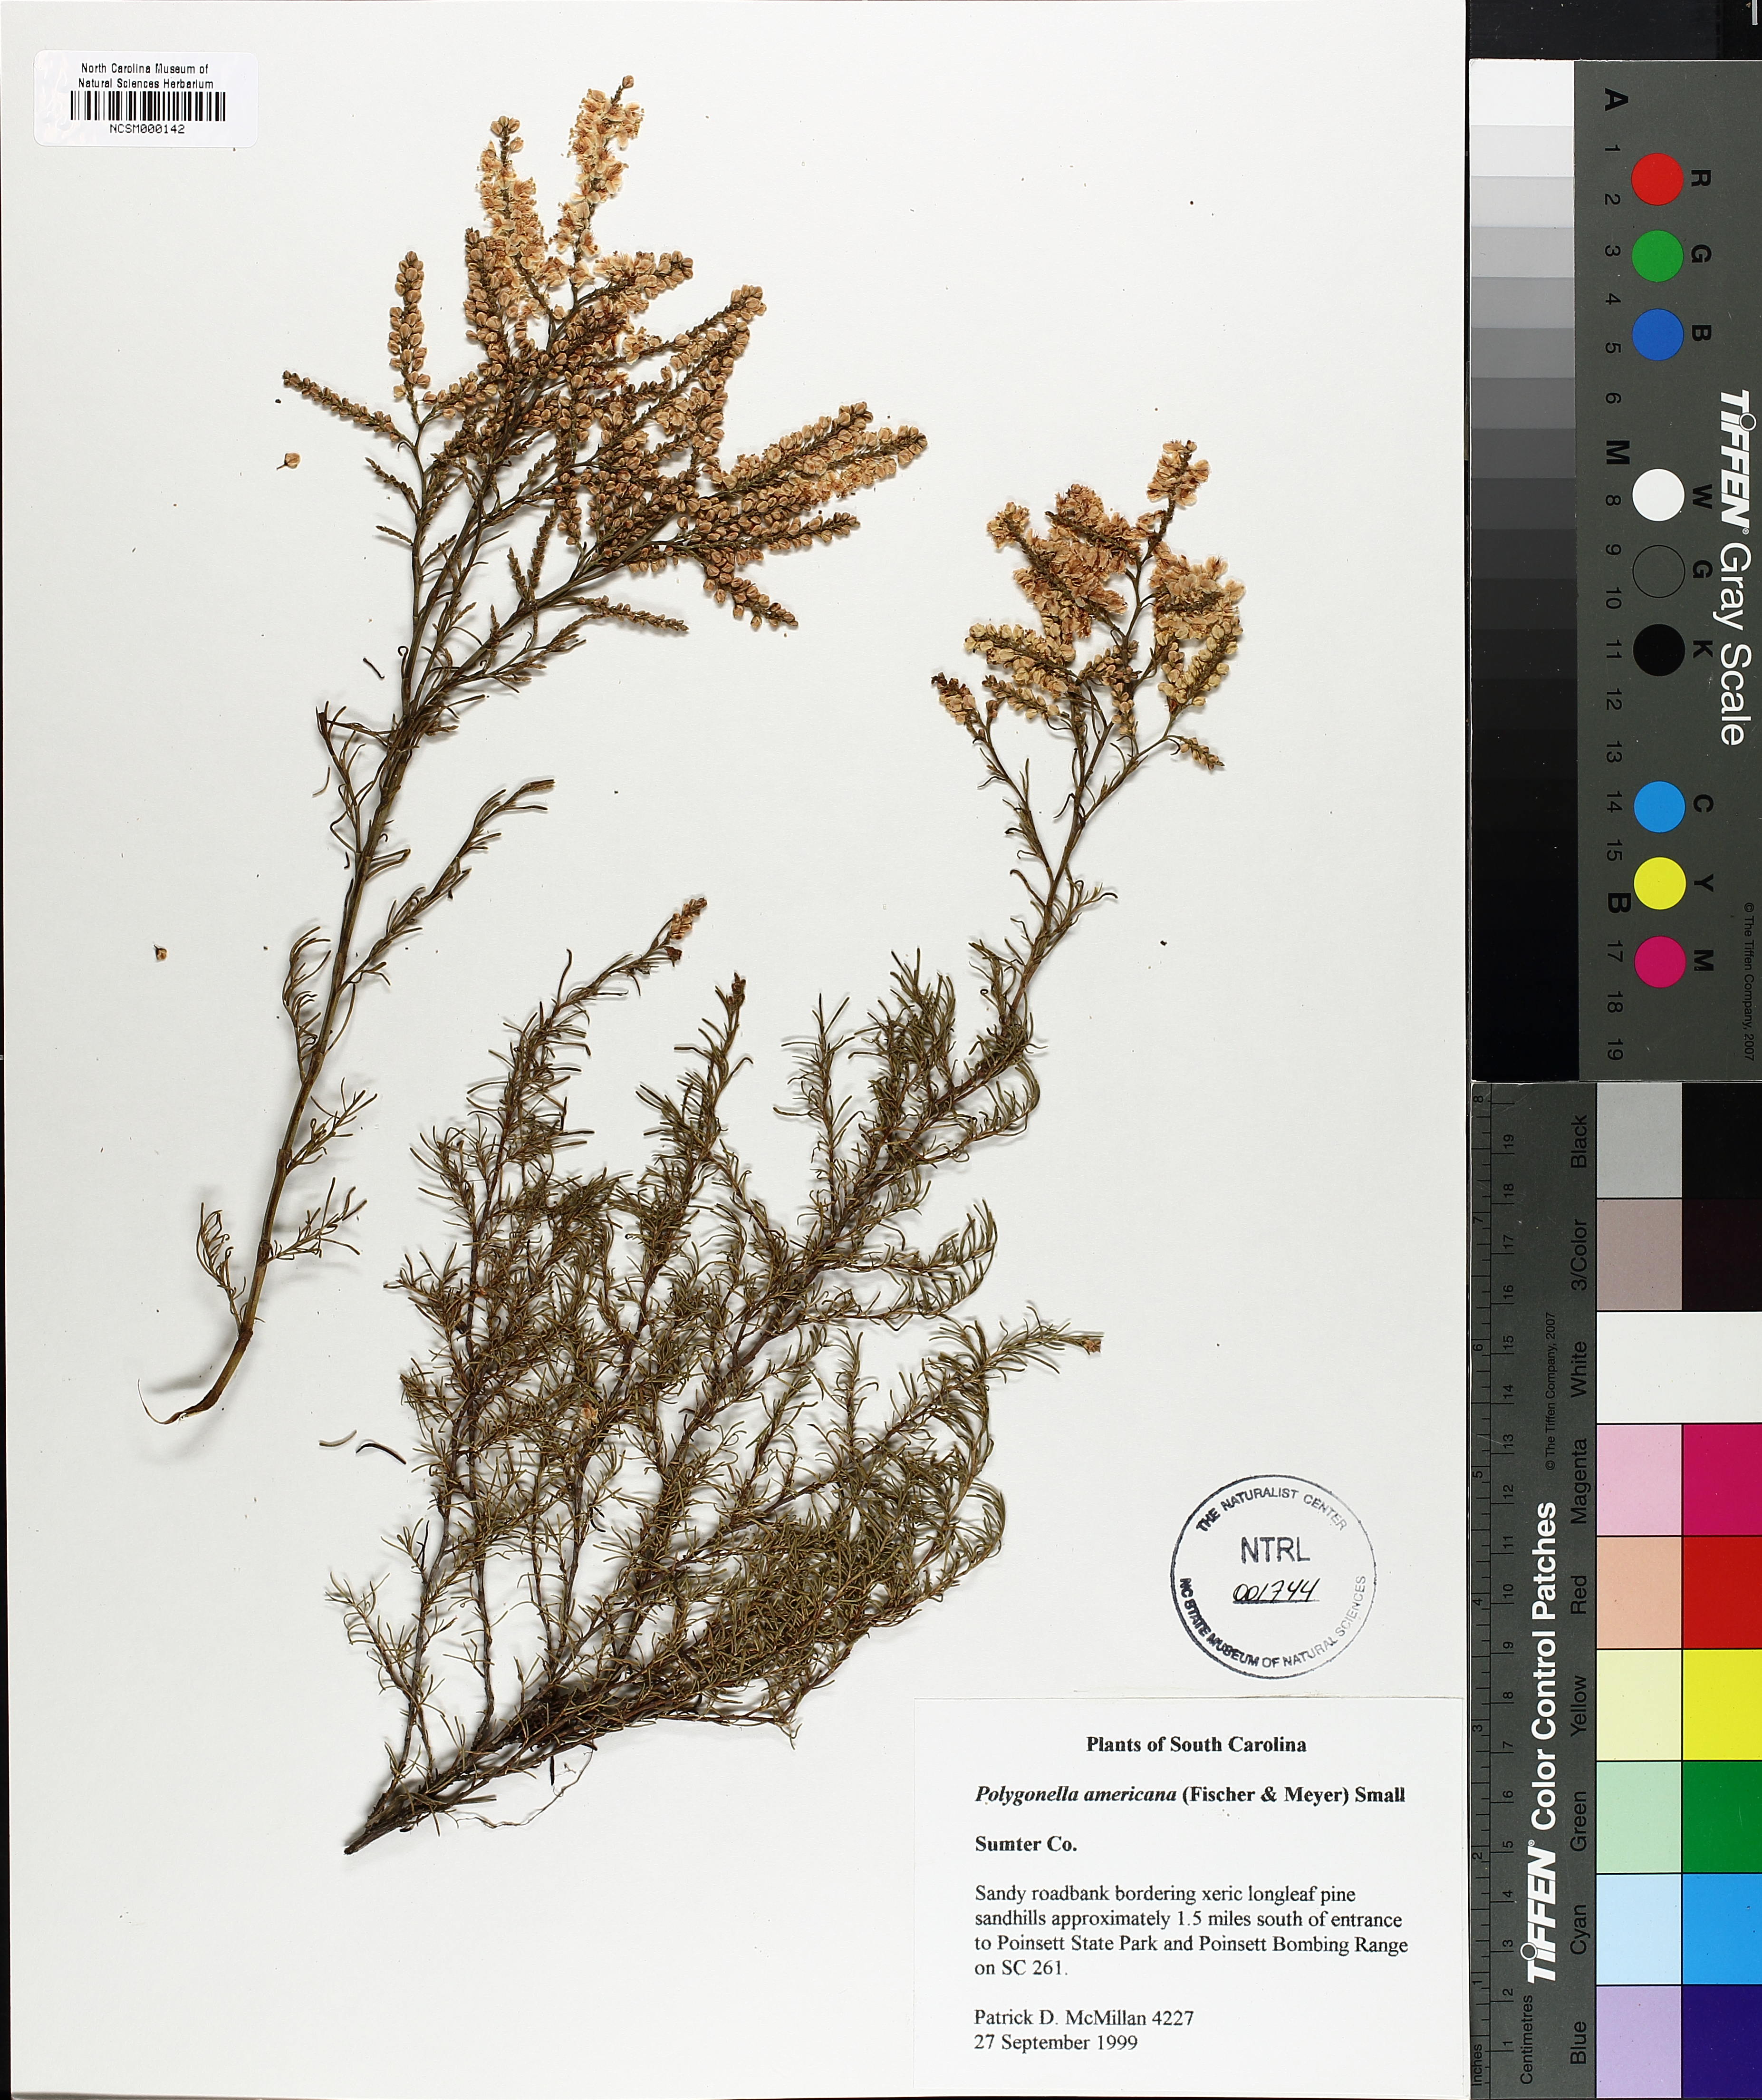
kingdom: Plantae
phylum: Tracheophyta
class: Magnoliopsida
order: Caryophyllales
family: Polygonaceae
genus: Polygonella
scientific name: Polygonella americana
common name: Southern jointweed
